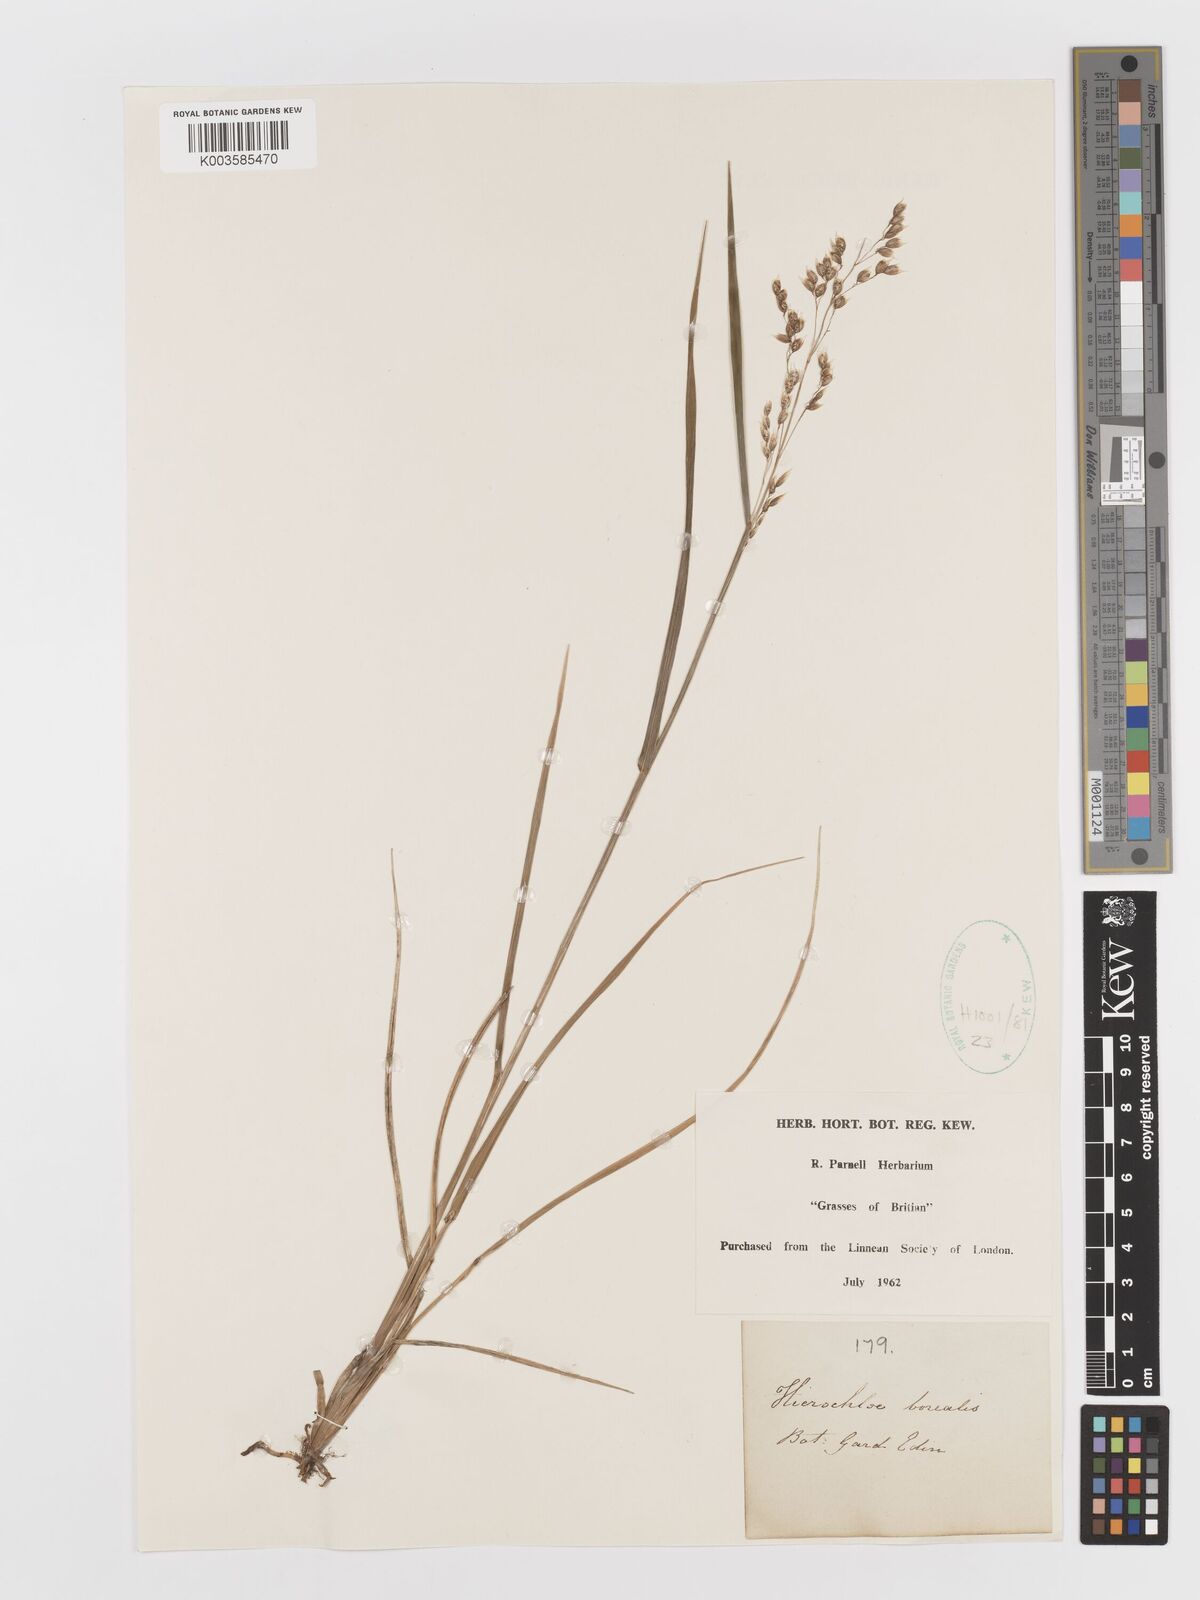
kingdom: Plantae
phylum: Tracheophyta
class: Liliopsida
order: Poales
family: Poaceae
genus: Anthoxanthum
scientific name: Anthoxanthum nitens
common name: Holy grass
